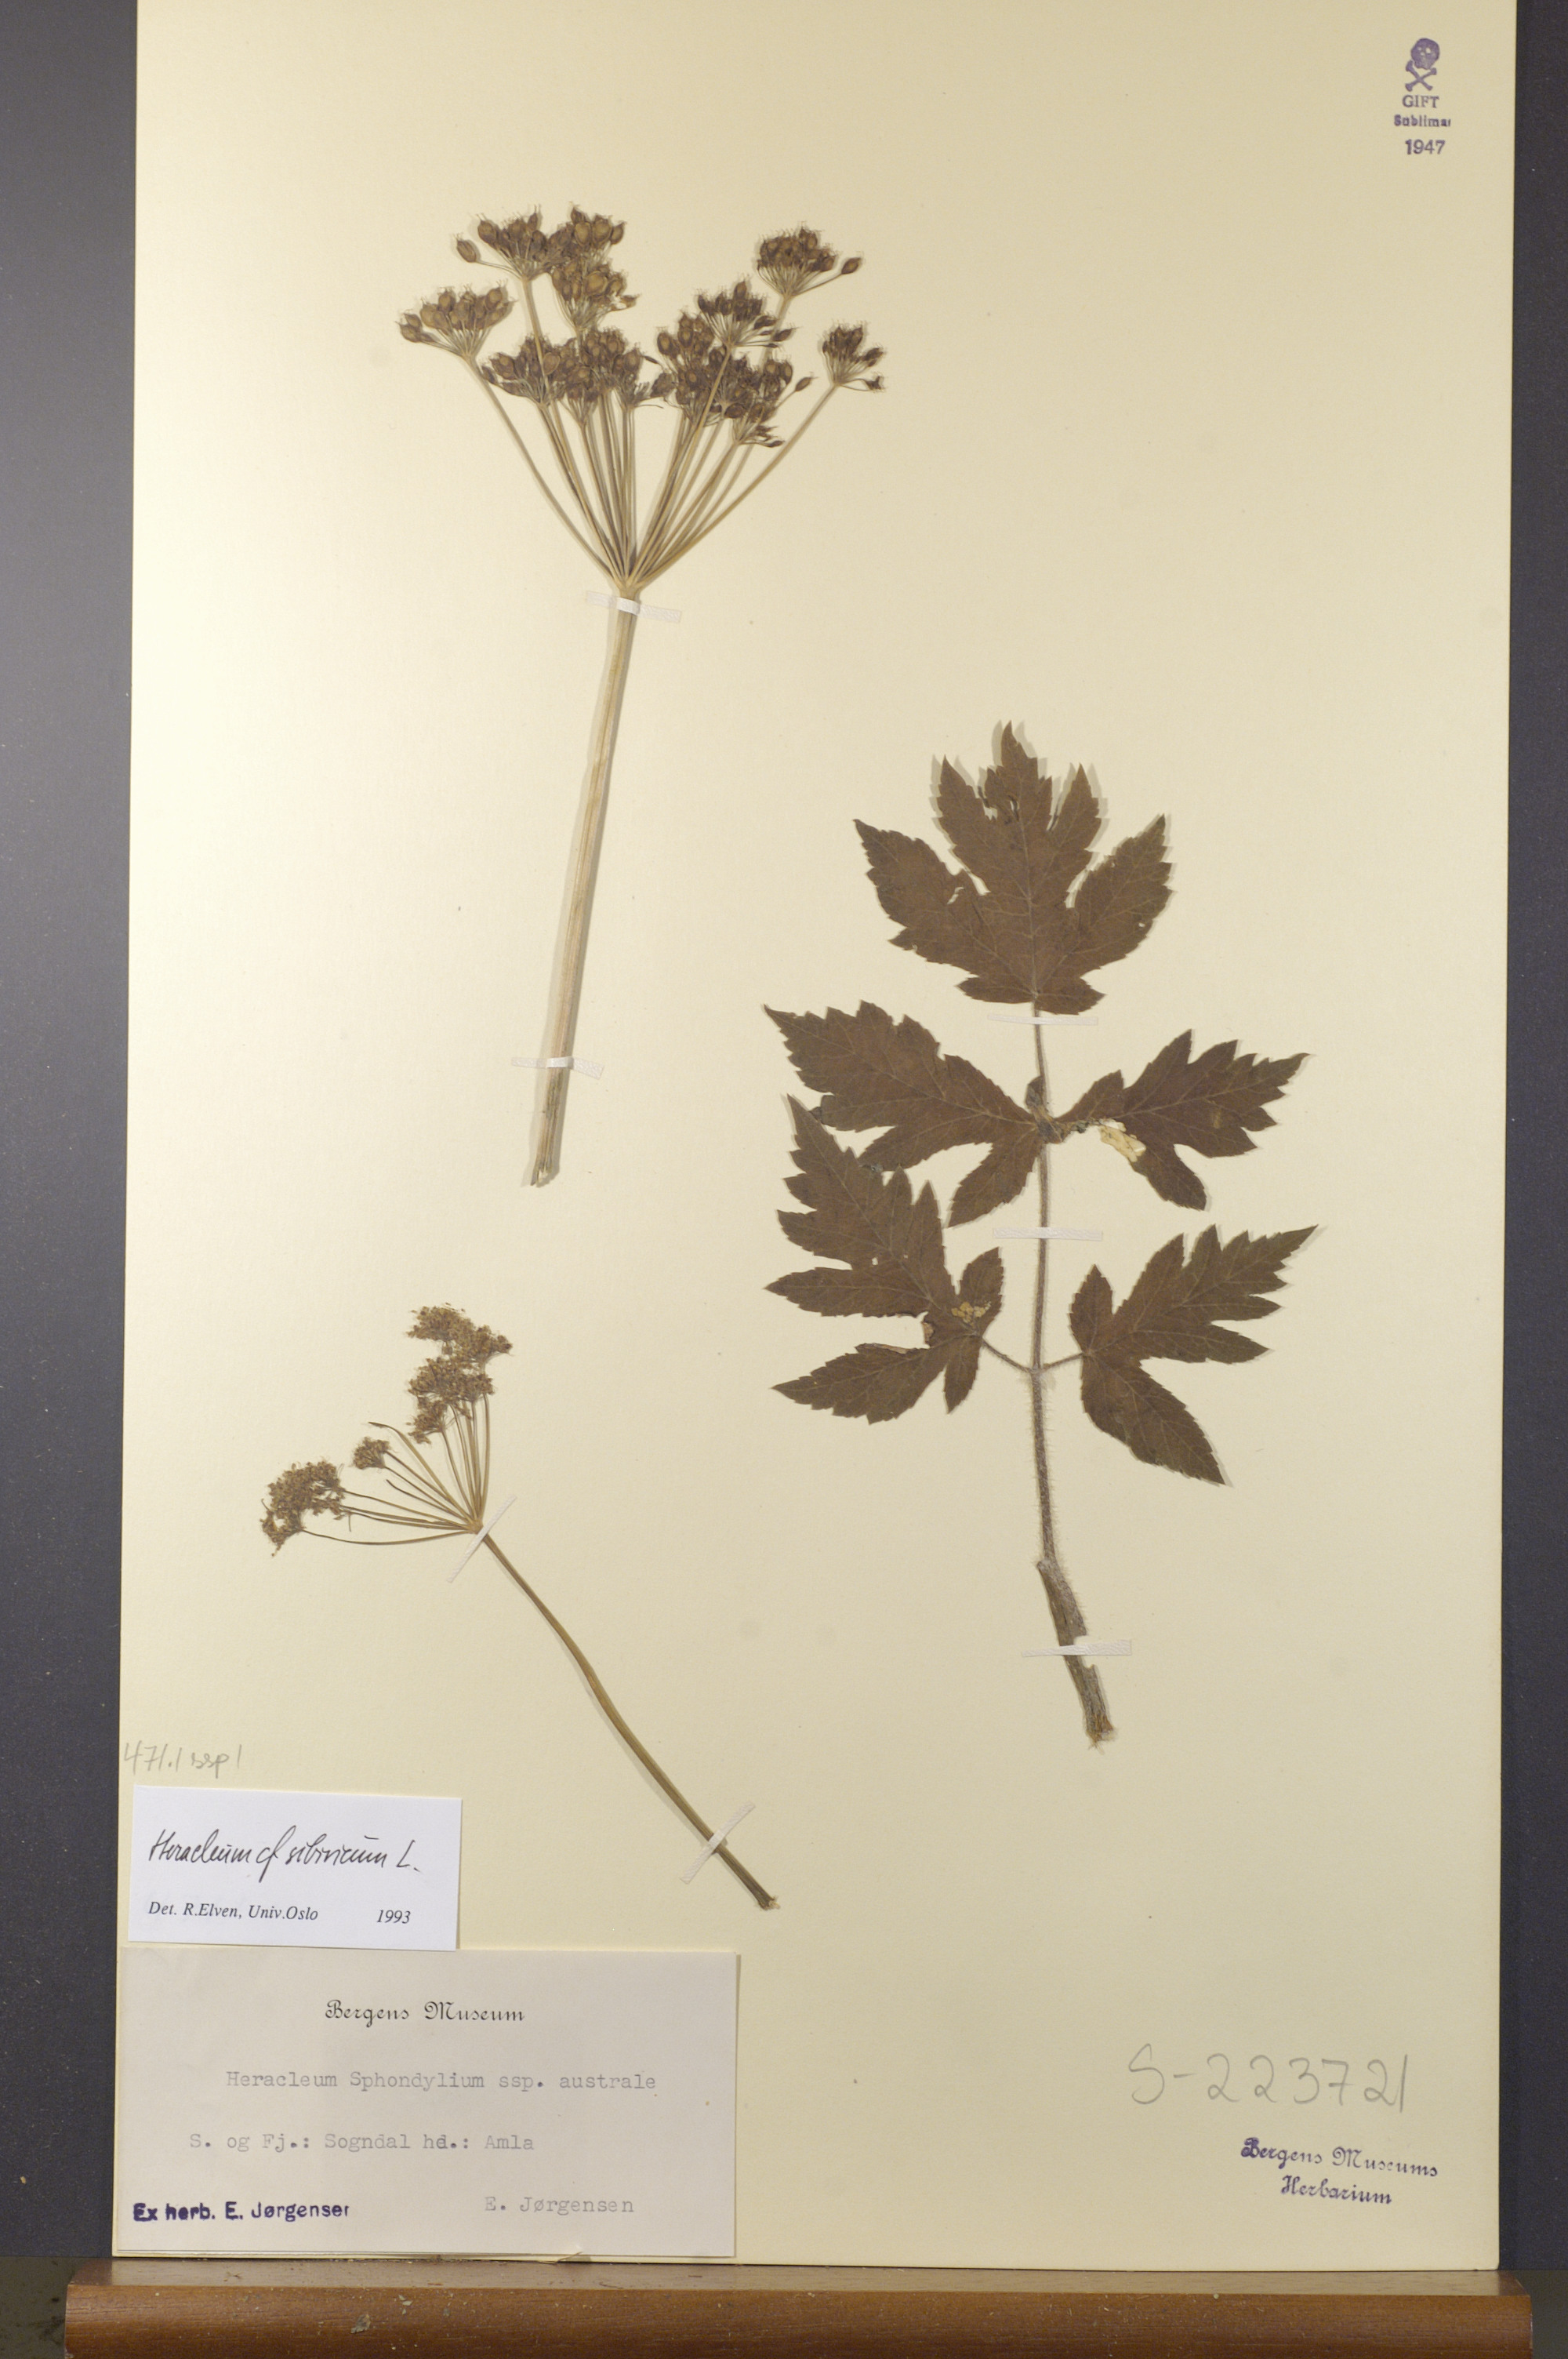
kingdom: Plantae
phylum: Tracheophyta
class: Magnoliopsida
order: Apiales
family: Apiaceae
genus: Heracleum
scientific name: Heracleum sphondylium
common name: Hogweed
